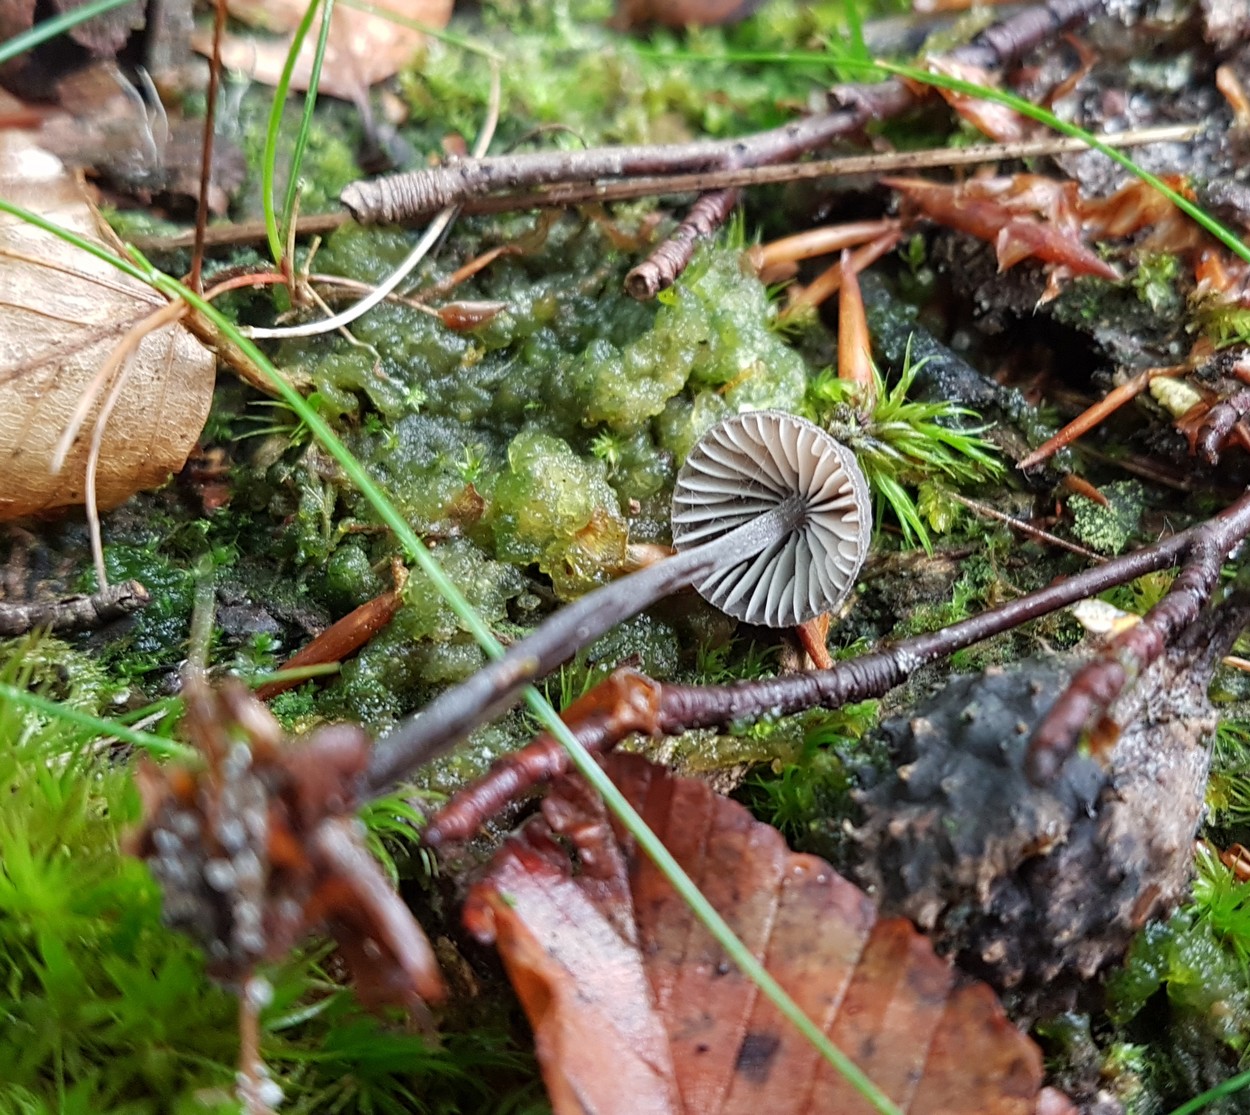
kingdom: Fungi
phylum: Basidiomycota
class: Agaricomycetes
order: Agaricales
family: Mycenaceae
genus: Mycena
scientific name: Mycena galopus
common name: hvidmælket huesvamp
